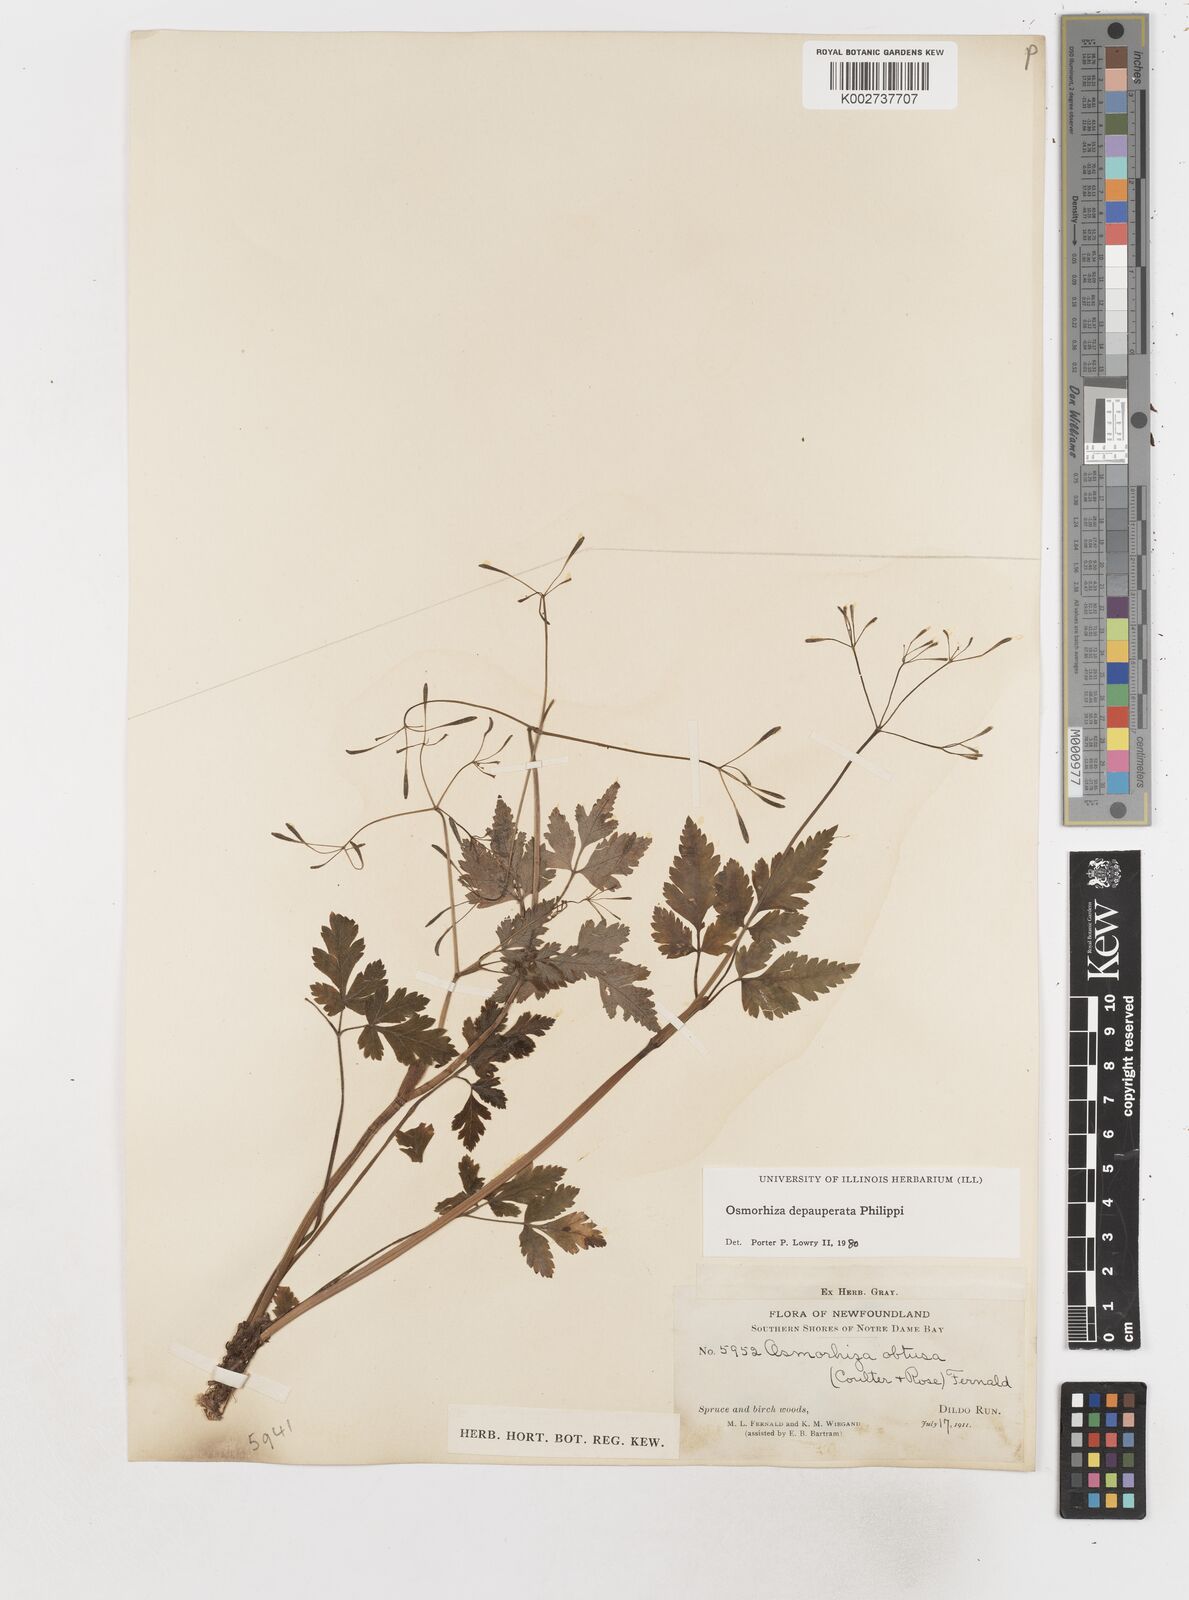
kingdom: Plantae
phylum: Tracheophyta
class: Magnoliopsida
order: Apiales
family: Apiaceae
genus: Osmorhiza
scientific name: Osmorhiza depauperata
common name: Blunt sweet cicely
